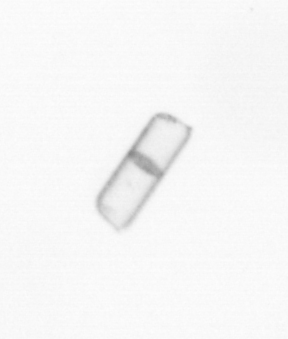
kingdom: Chromista
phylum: Ochrophyta
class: Bacillariophyceae
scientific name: Bacillariophyceae
